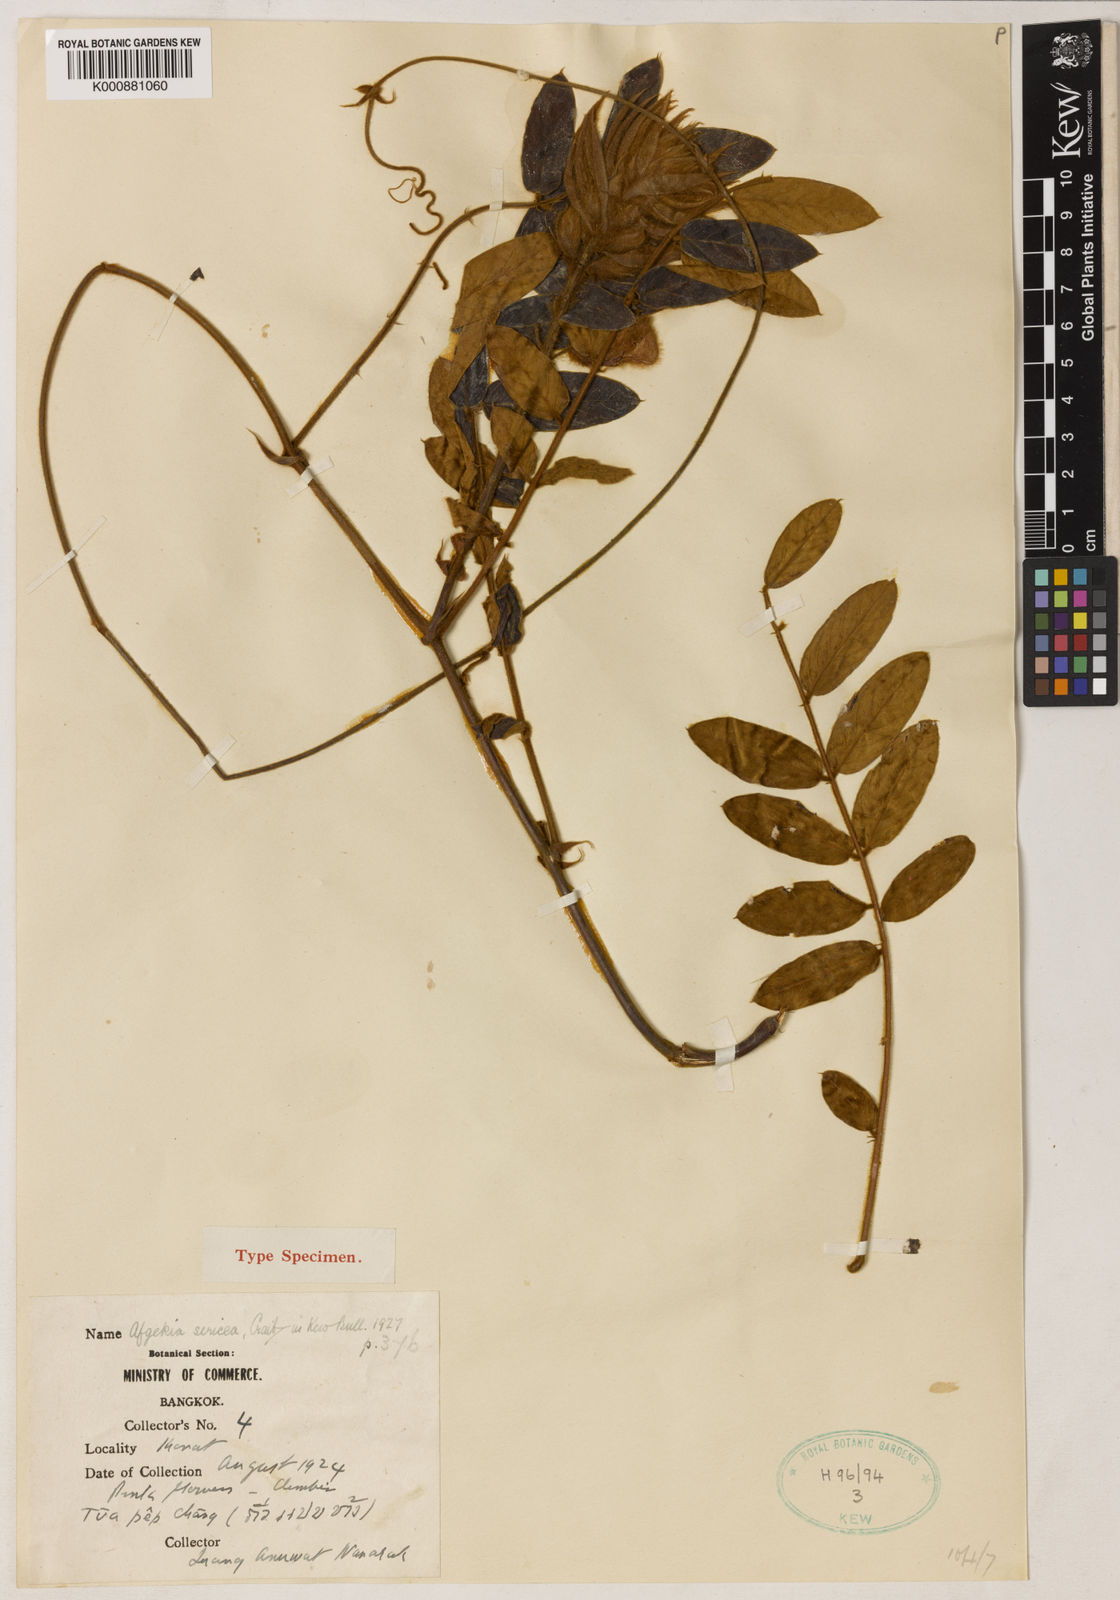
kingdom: Plantae
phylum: Tracheophyta
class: Magnoliopsida
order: Fabales
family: Fabaceae
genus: Afgekia
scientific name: Afgekia sericea
